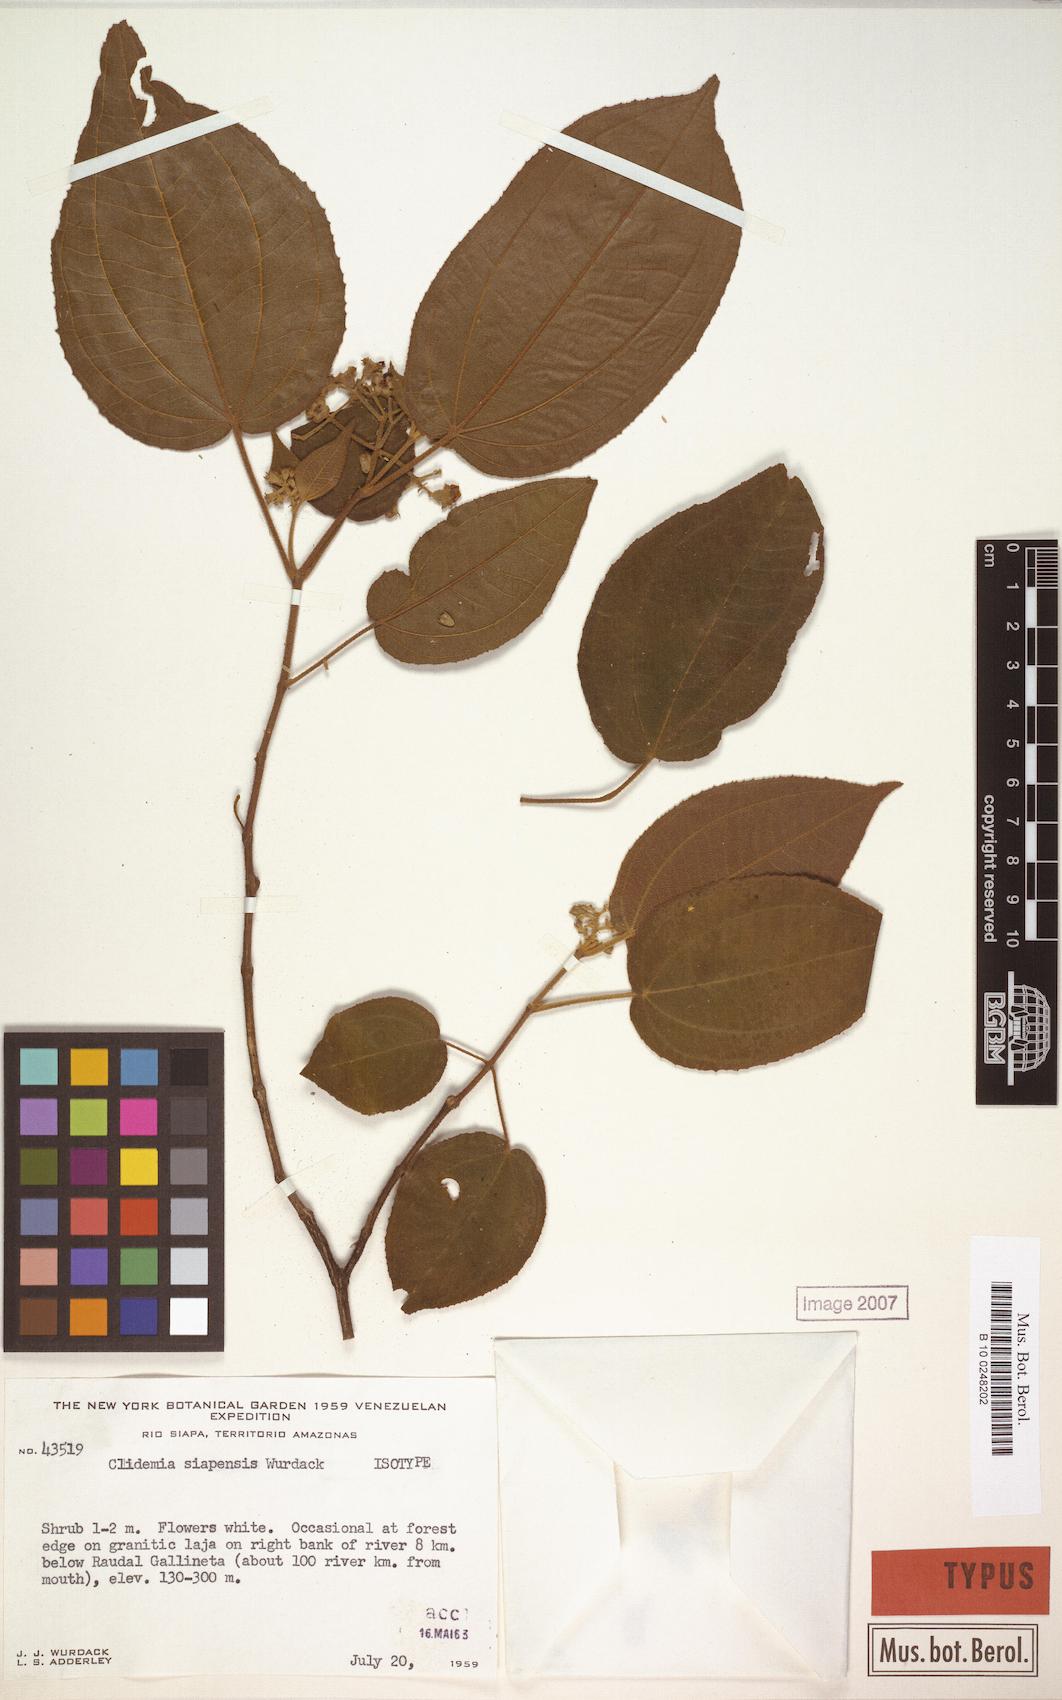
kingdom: Plantae
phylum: Tracheophyta
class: Magnoliopsida
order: Myrtales
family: Melastomataceae
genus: Miconia
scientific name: Miconia siapensis
